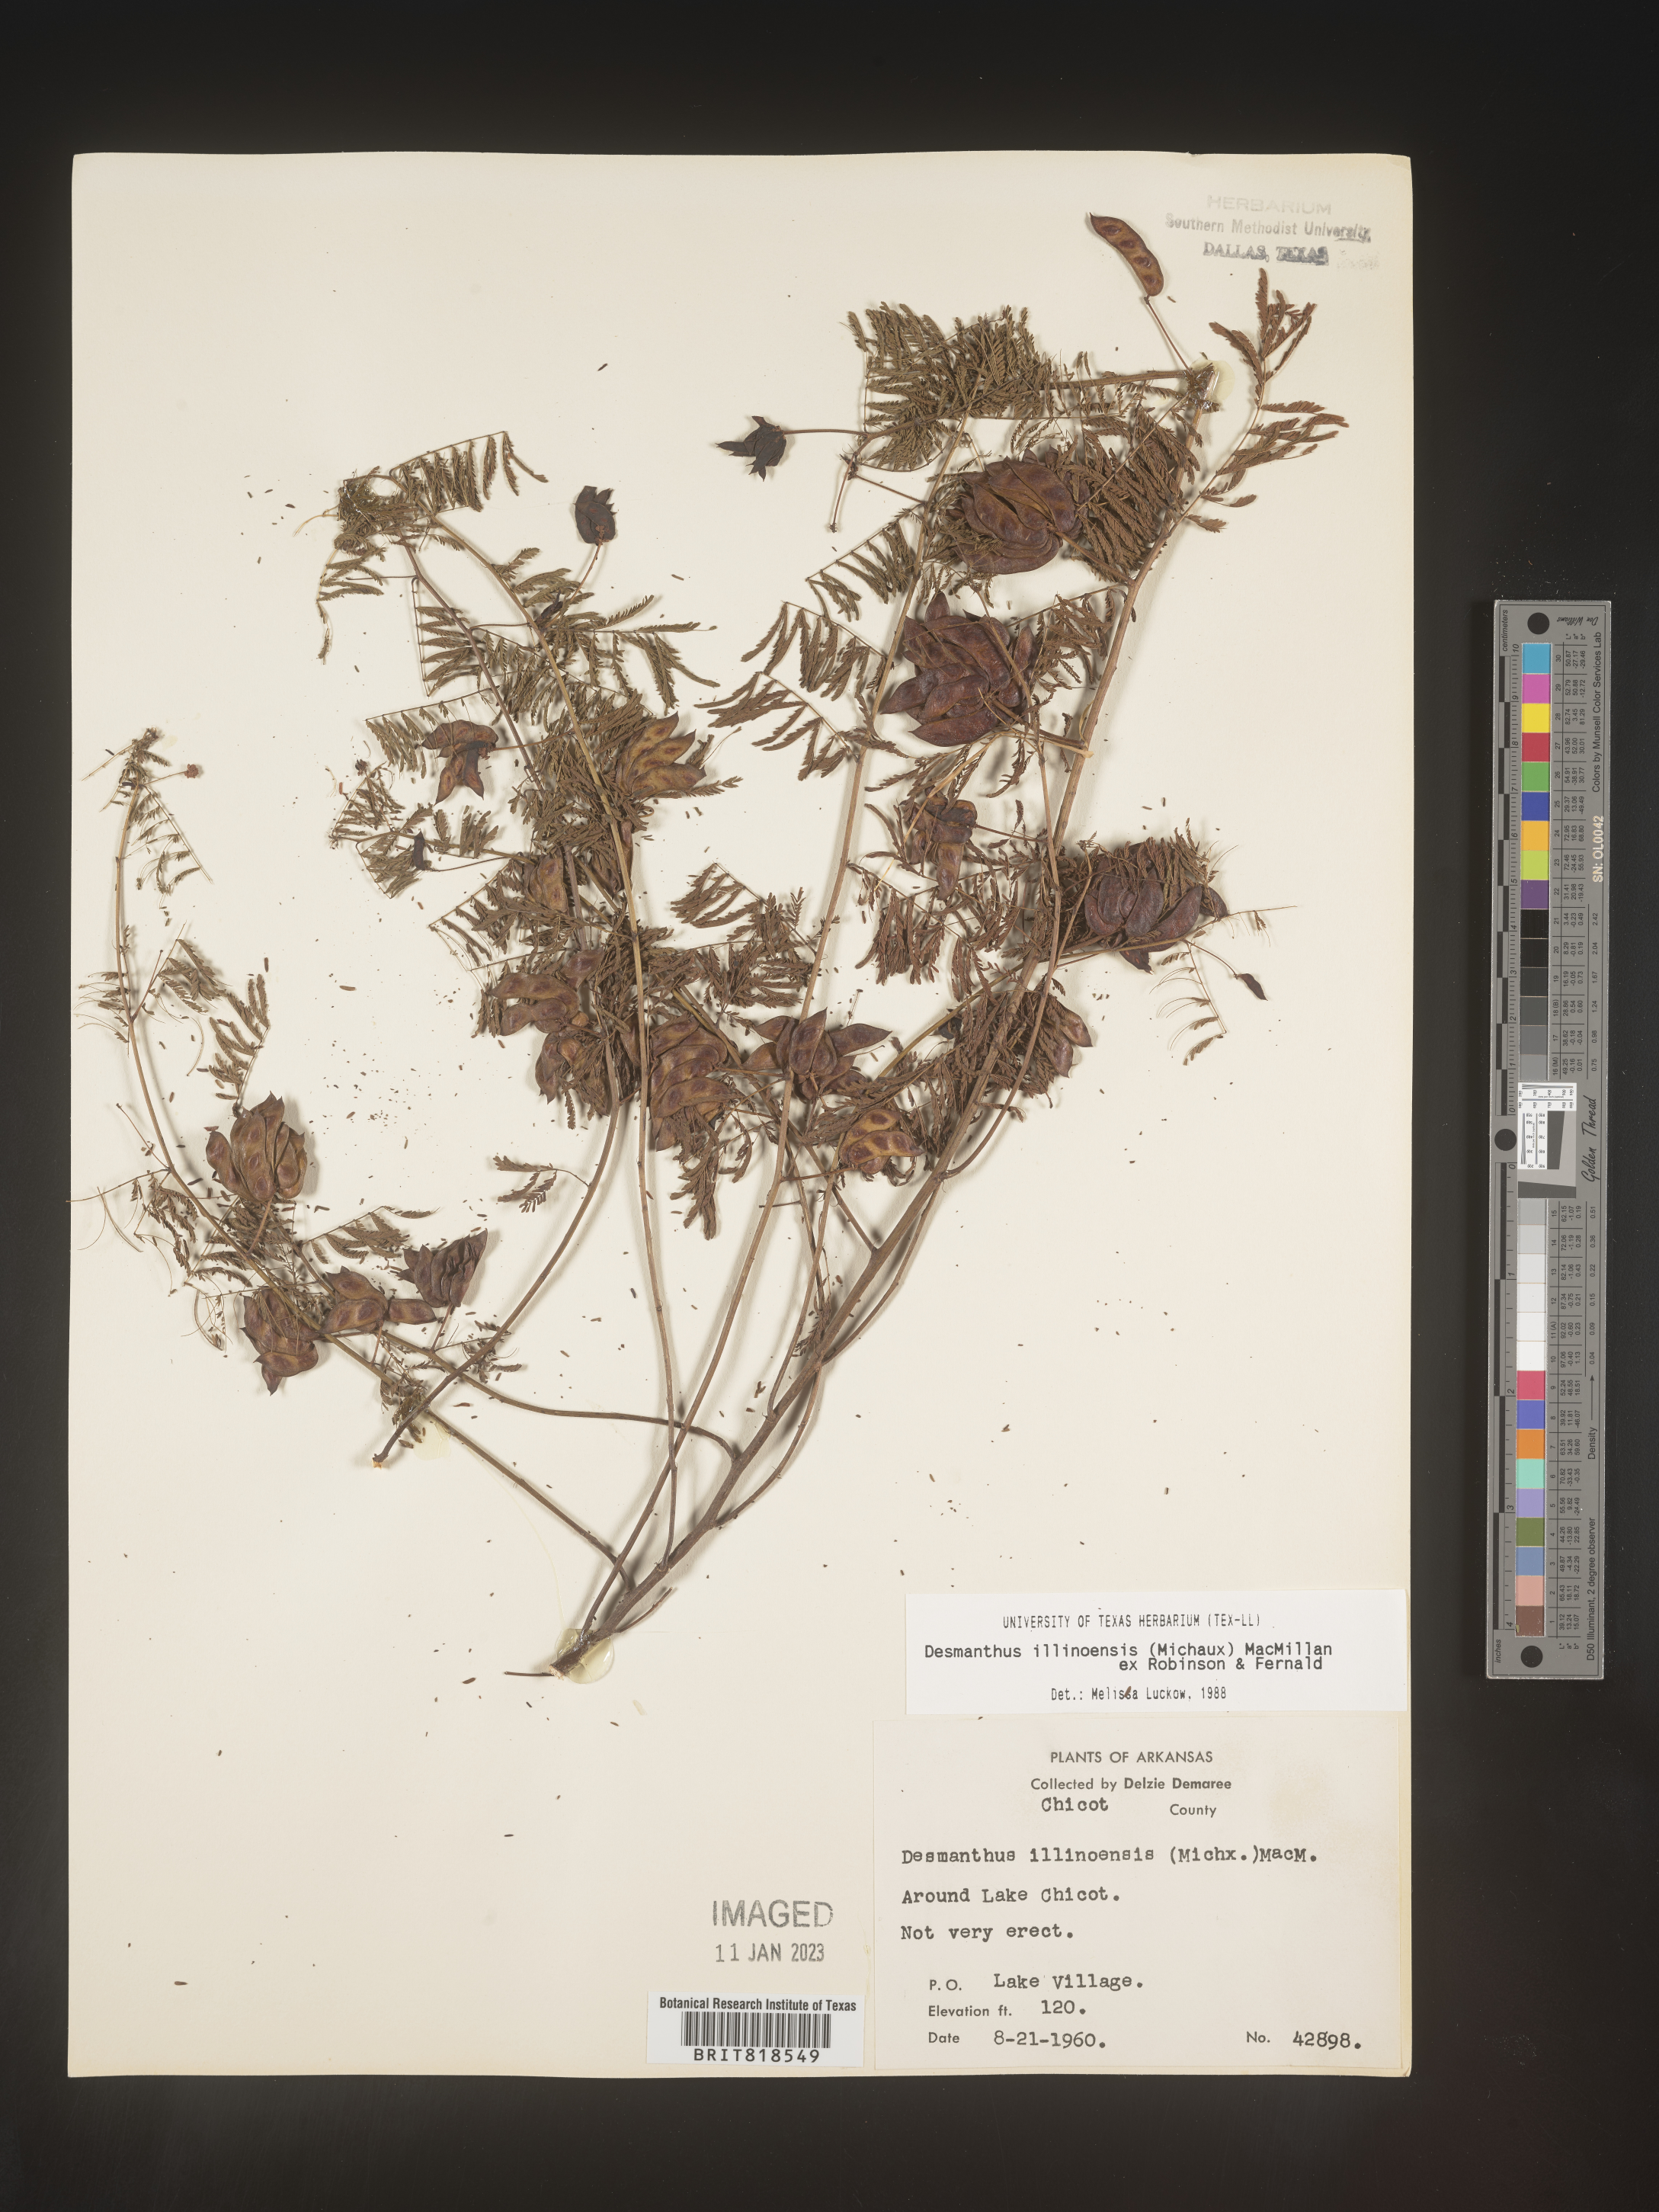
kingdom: Plantae
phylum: Tracheophyta
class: Magnoliopsida
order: Fabales
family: Fabaceae
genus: Desmanthus
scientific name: Desmanthus illinoensis
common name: Illinois bundle-flower
